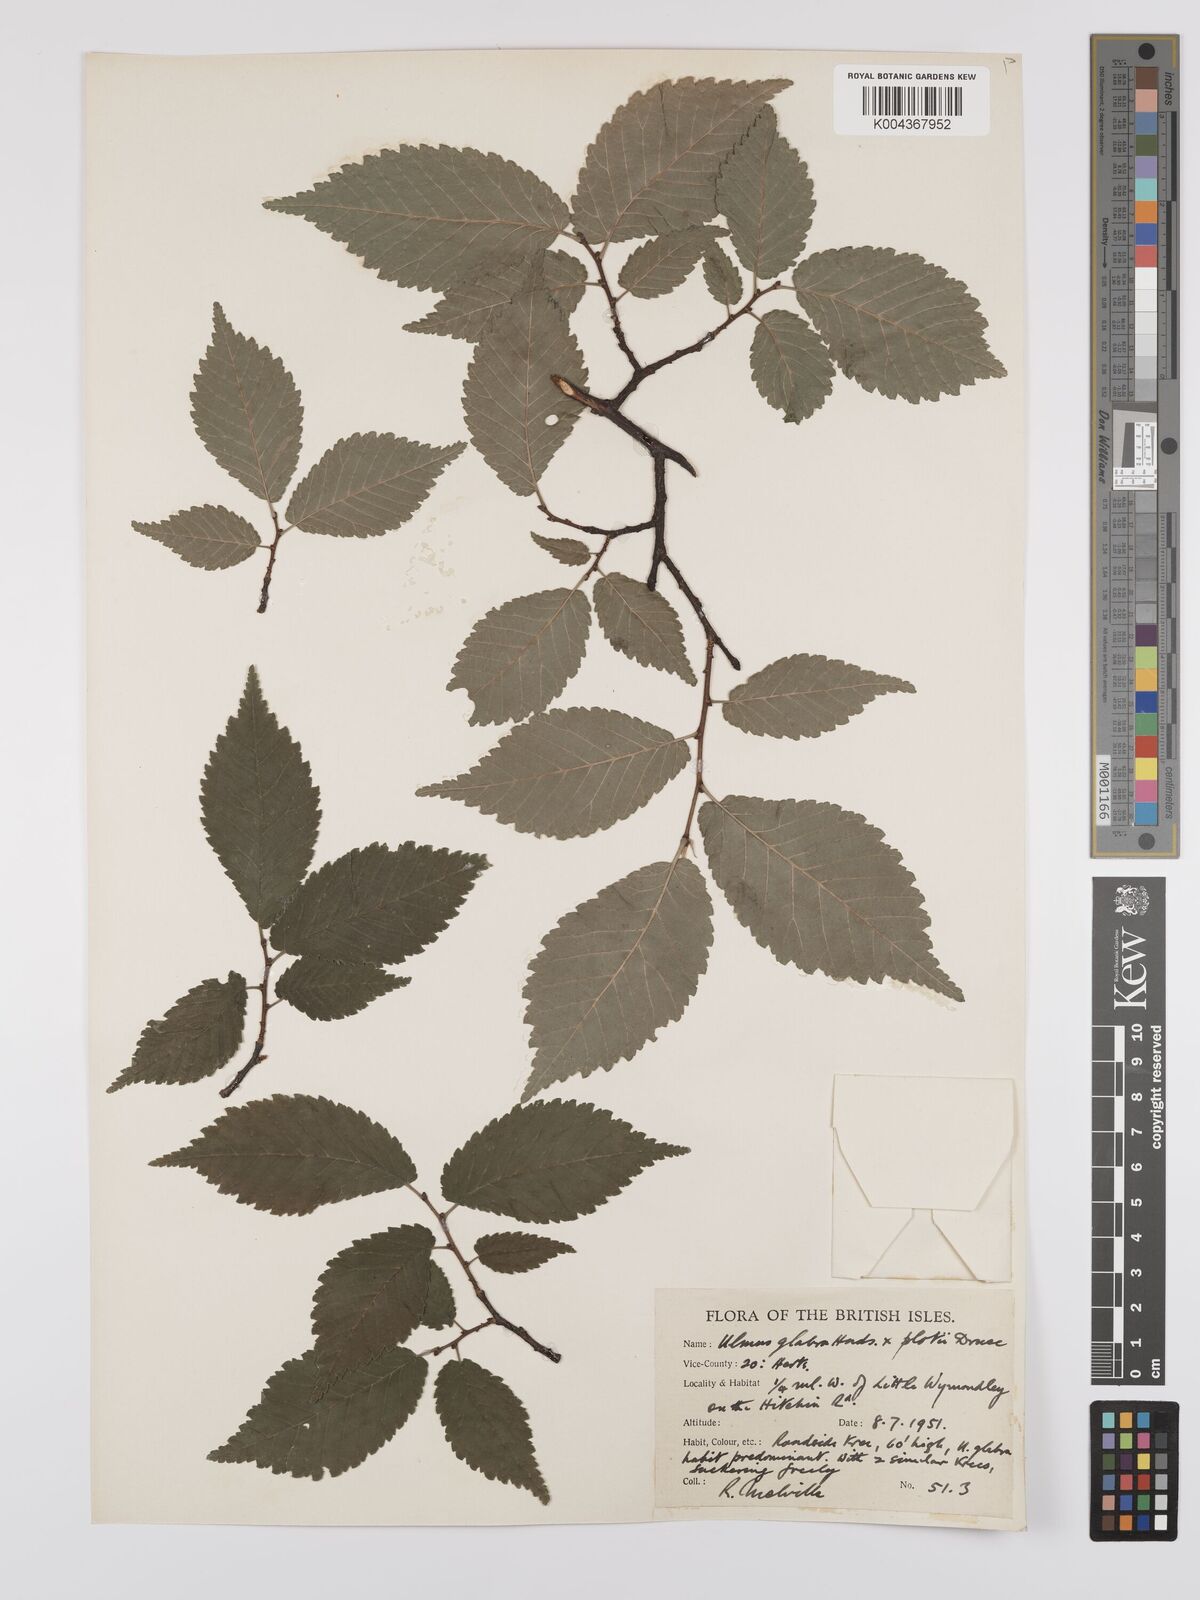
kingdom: Plantae
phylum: Tracheophyta
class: Magnoliopsida
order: Rosales
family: Ulmaceae
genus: Ulmus
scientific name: Ulmus glabra
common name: Wych elm
